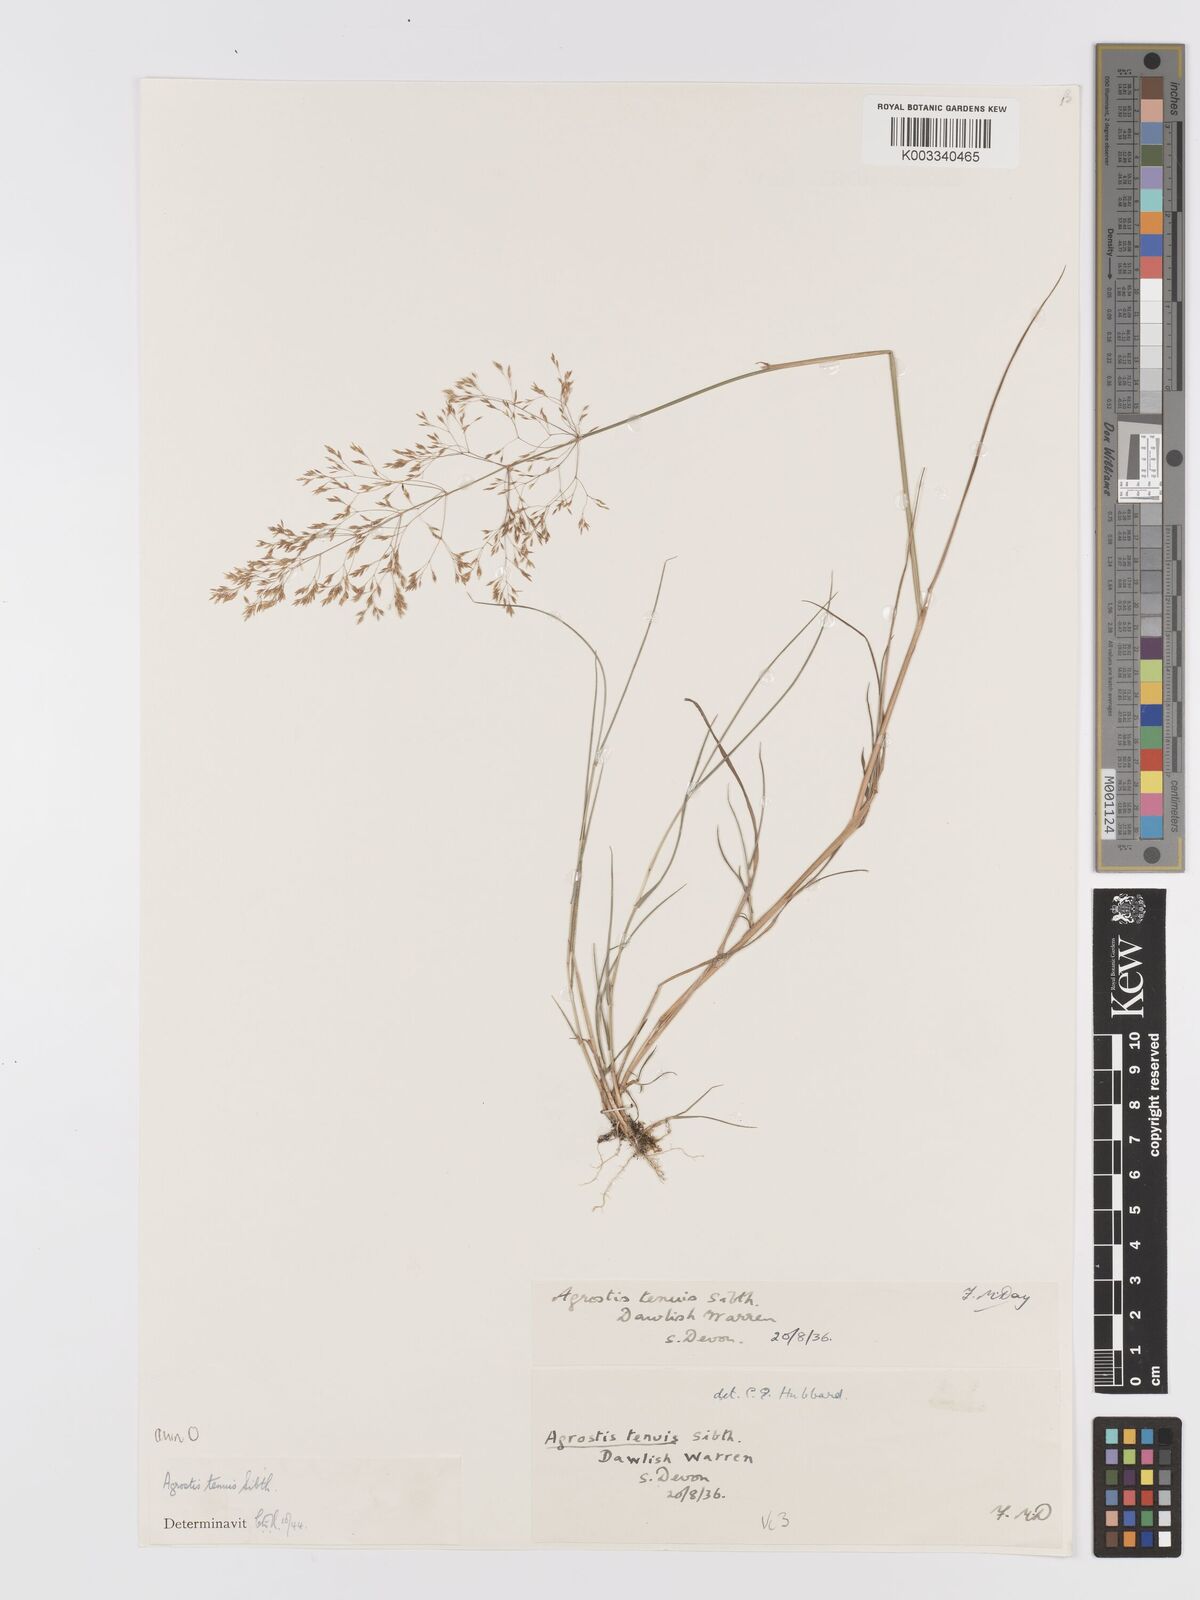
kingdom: Plantae
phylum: Tracheophyta
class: Liliopsida
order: Poales
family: Poaceae
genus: Agrostis
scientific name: Agrostis capillaris
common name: Colonial bentgrass
